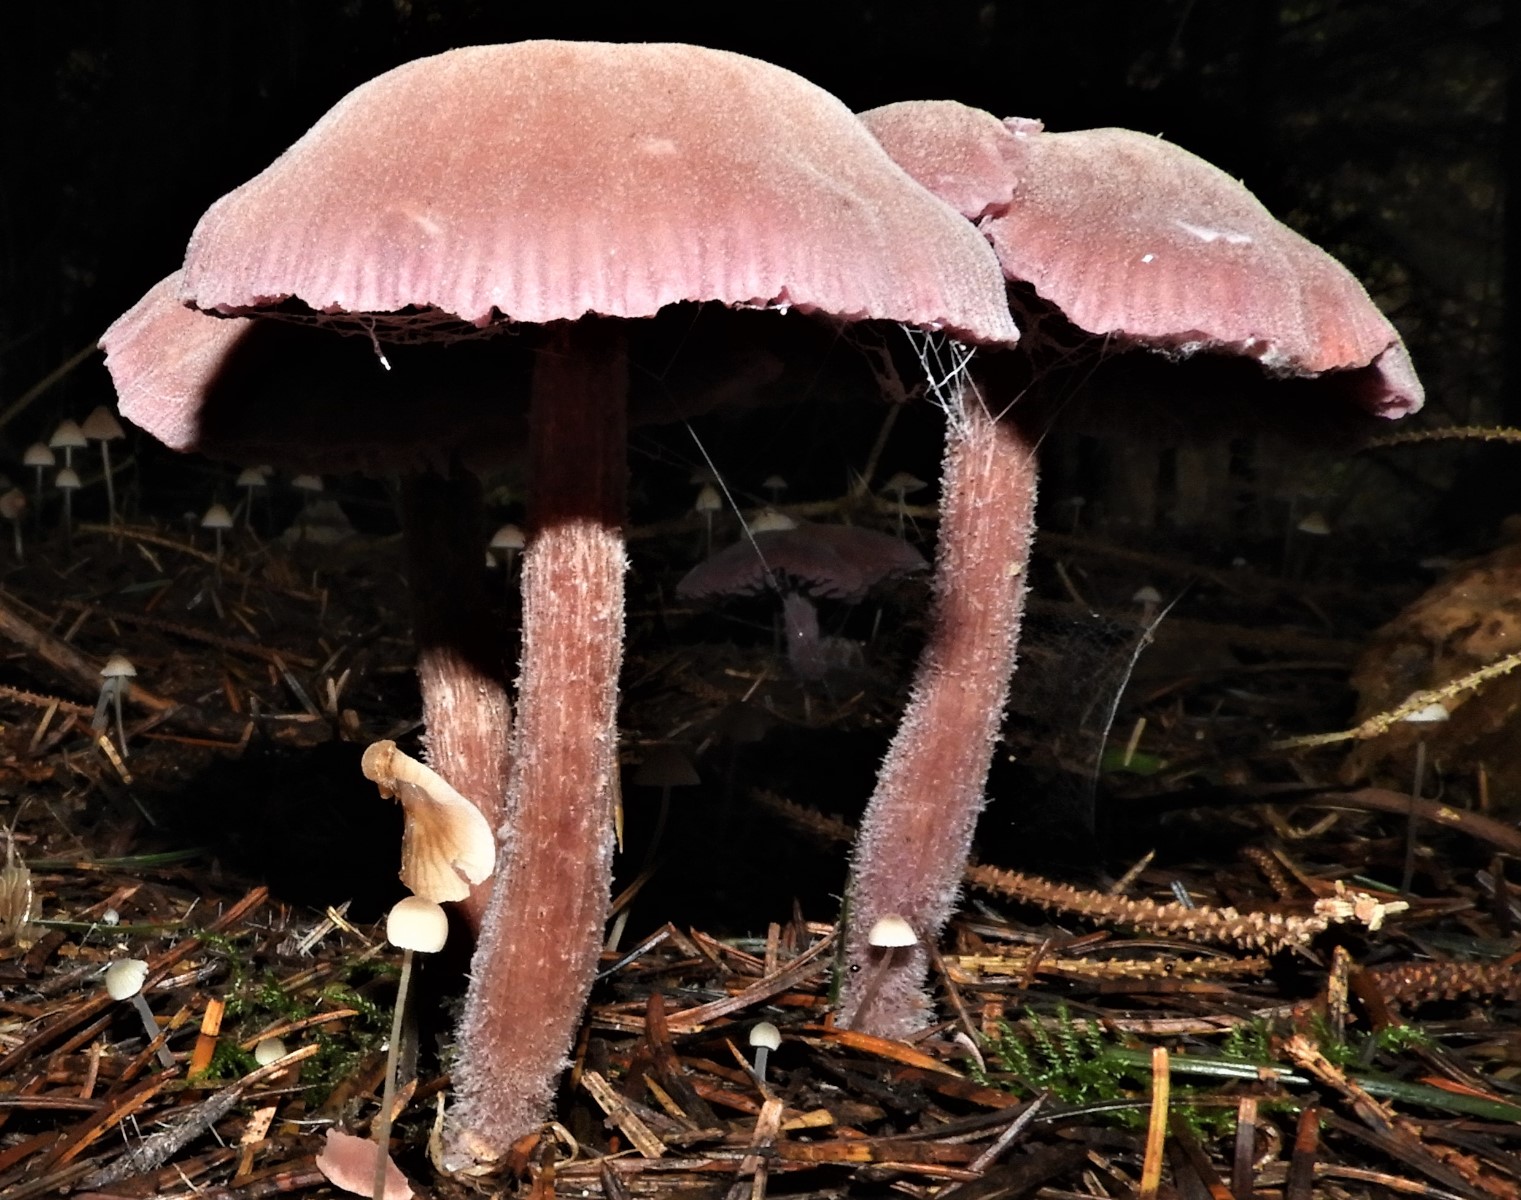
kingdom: Fungi
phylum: Basidiomycota
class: Agaricomycetes
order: Agaricales
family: Hydnangiaceae
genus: Laccaria
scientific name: Laccaria amethystina
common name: violet ametysthat
